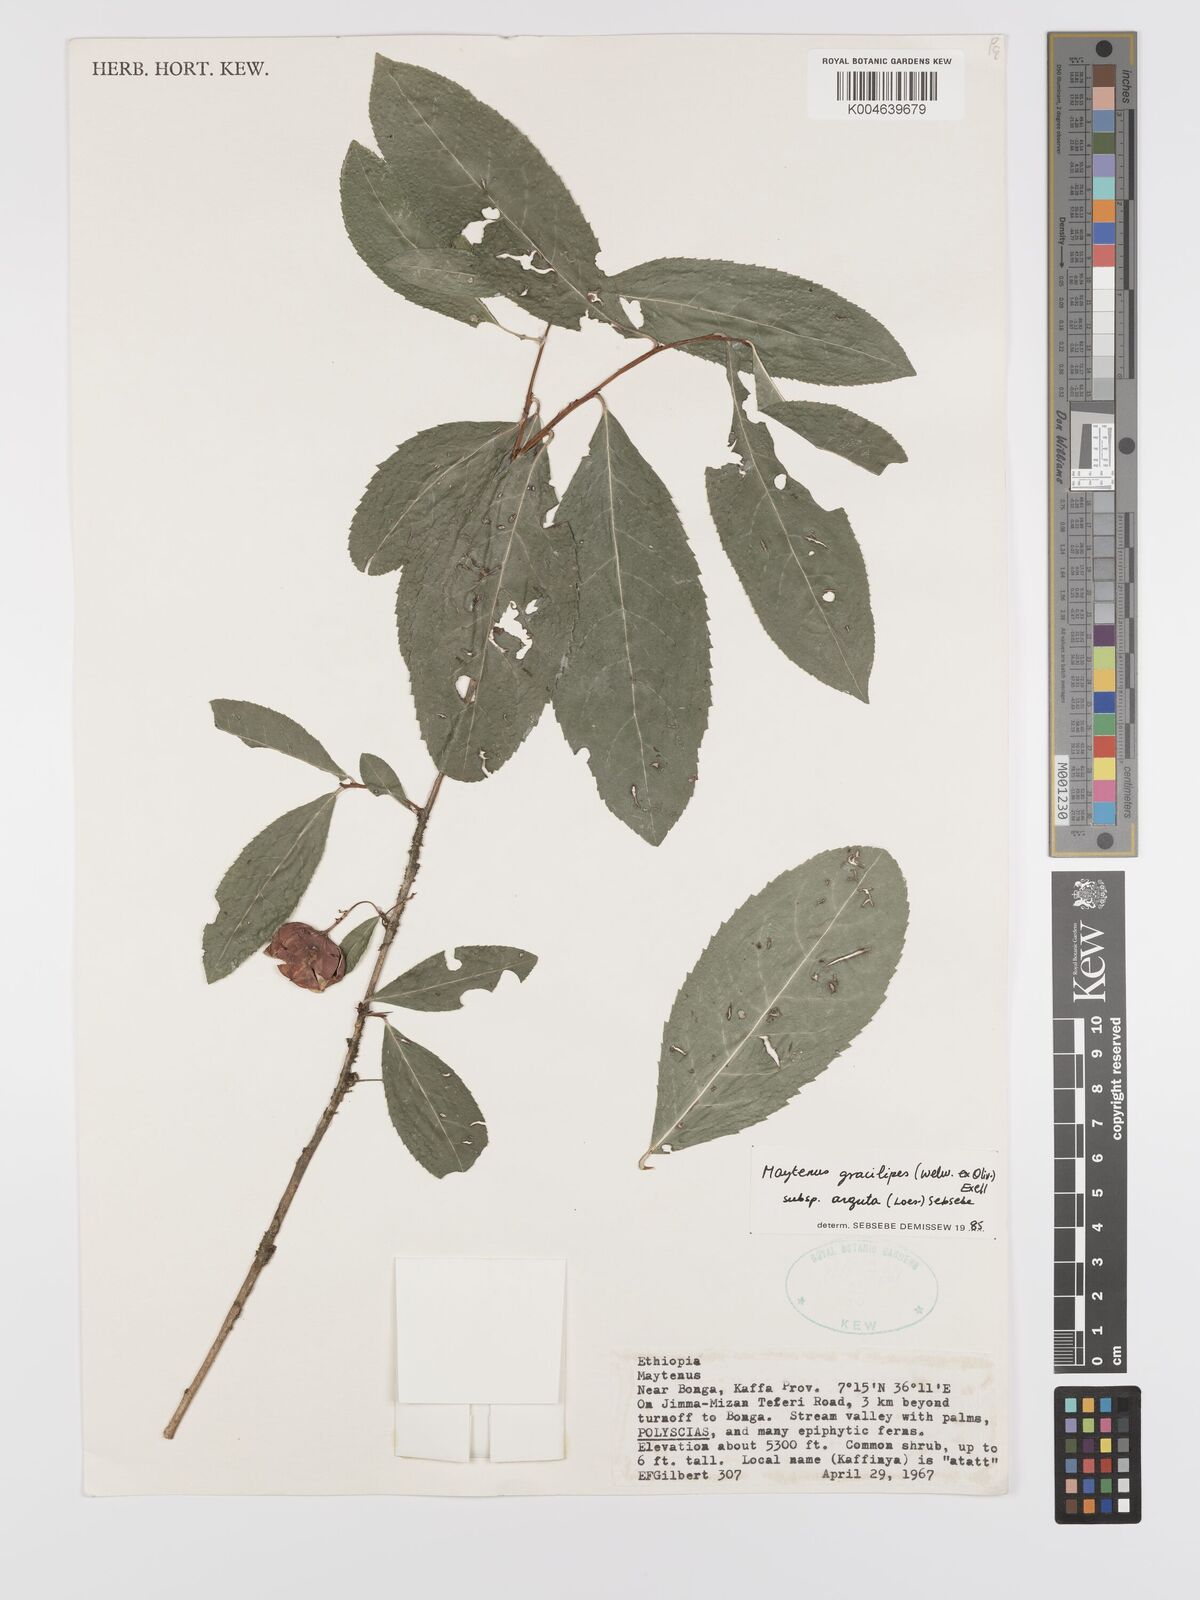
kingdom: Plantae
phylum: Tracheophyta
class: Magnoliopsida
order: Celastrales
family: Celastraceae
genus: Gymnosporia
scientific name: Gymnosporia gracilipes
